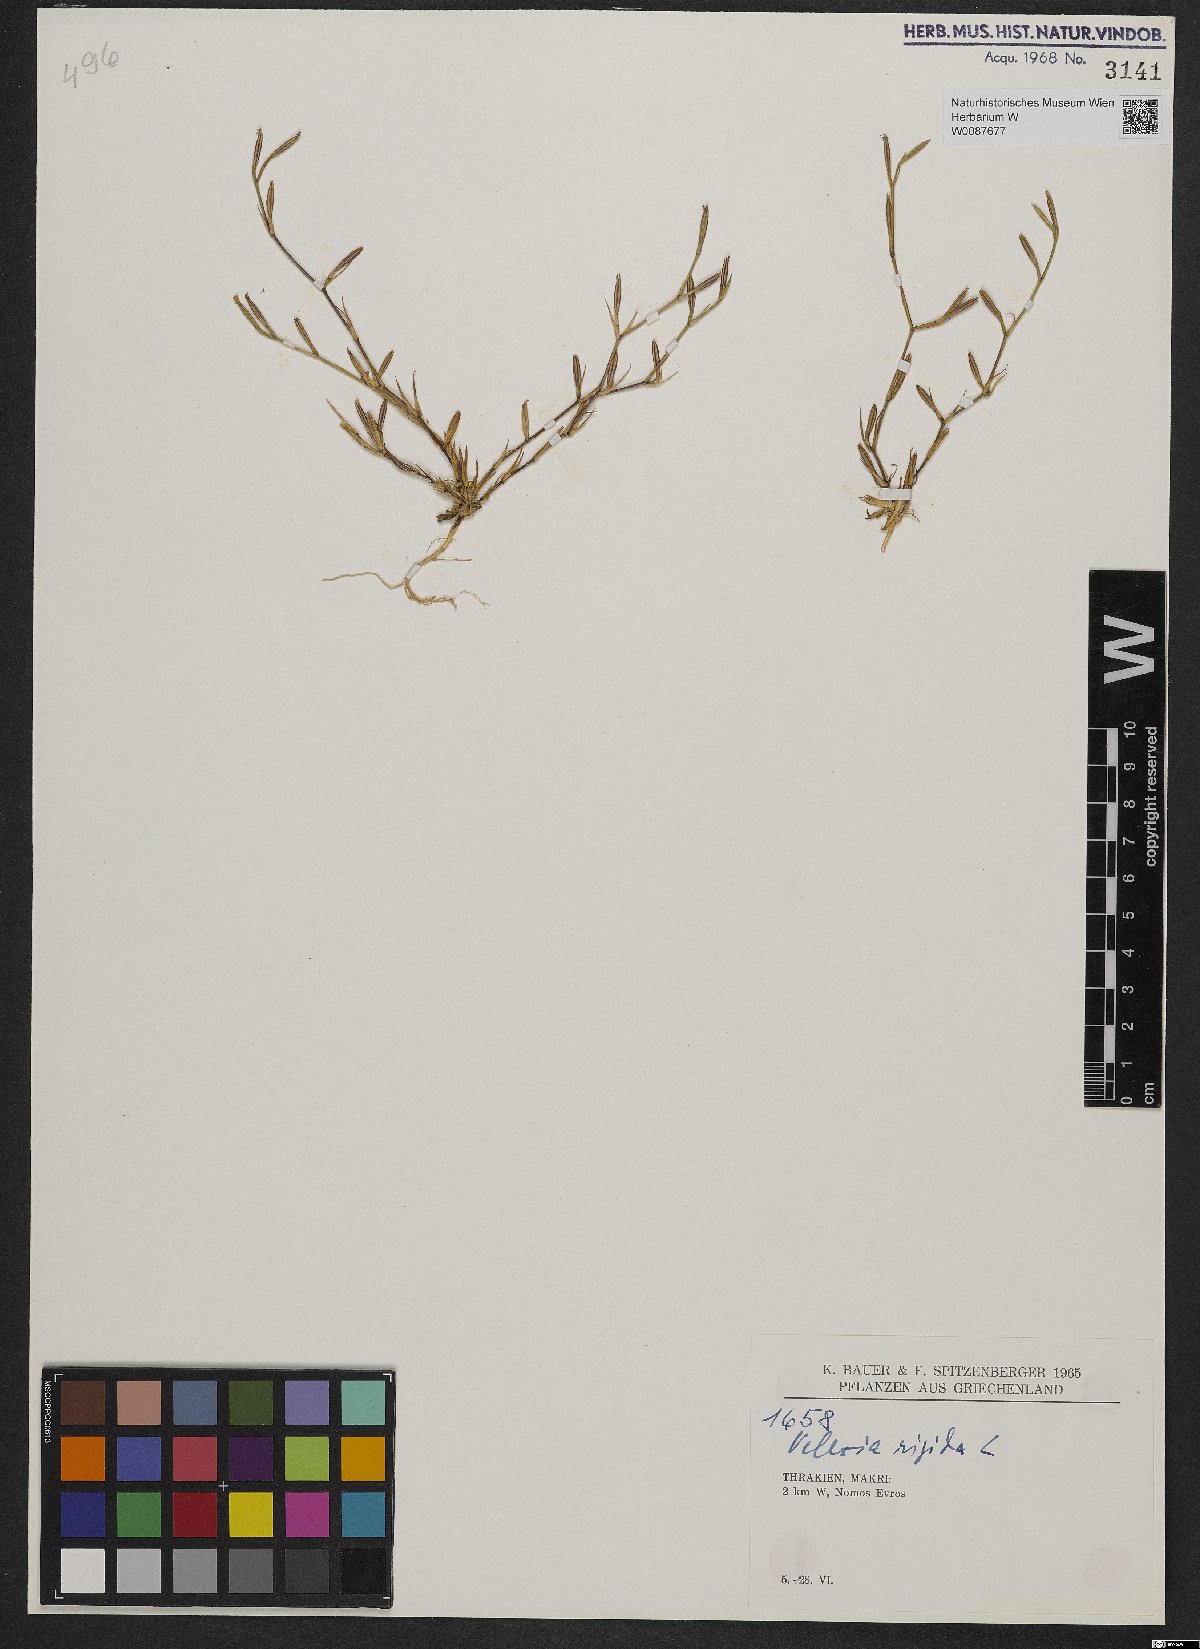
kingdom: Plantae
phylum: Tracheophyta
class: Magnoliopsida
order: Caryophyllales
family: Caryophyllaceae
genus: Dianthus
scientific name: Dianthus nudiflorus
